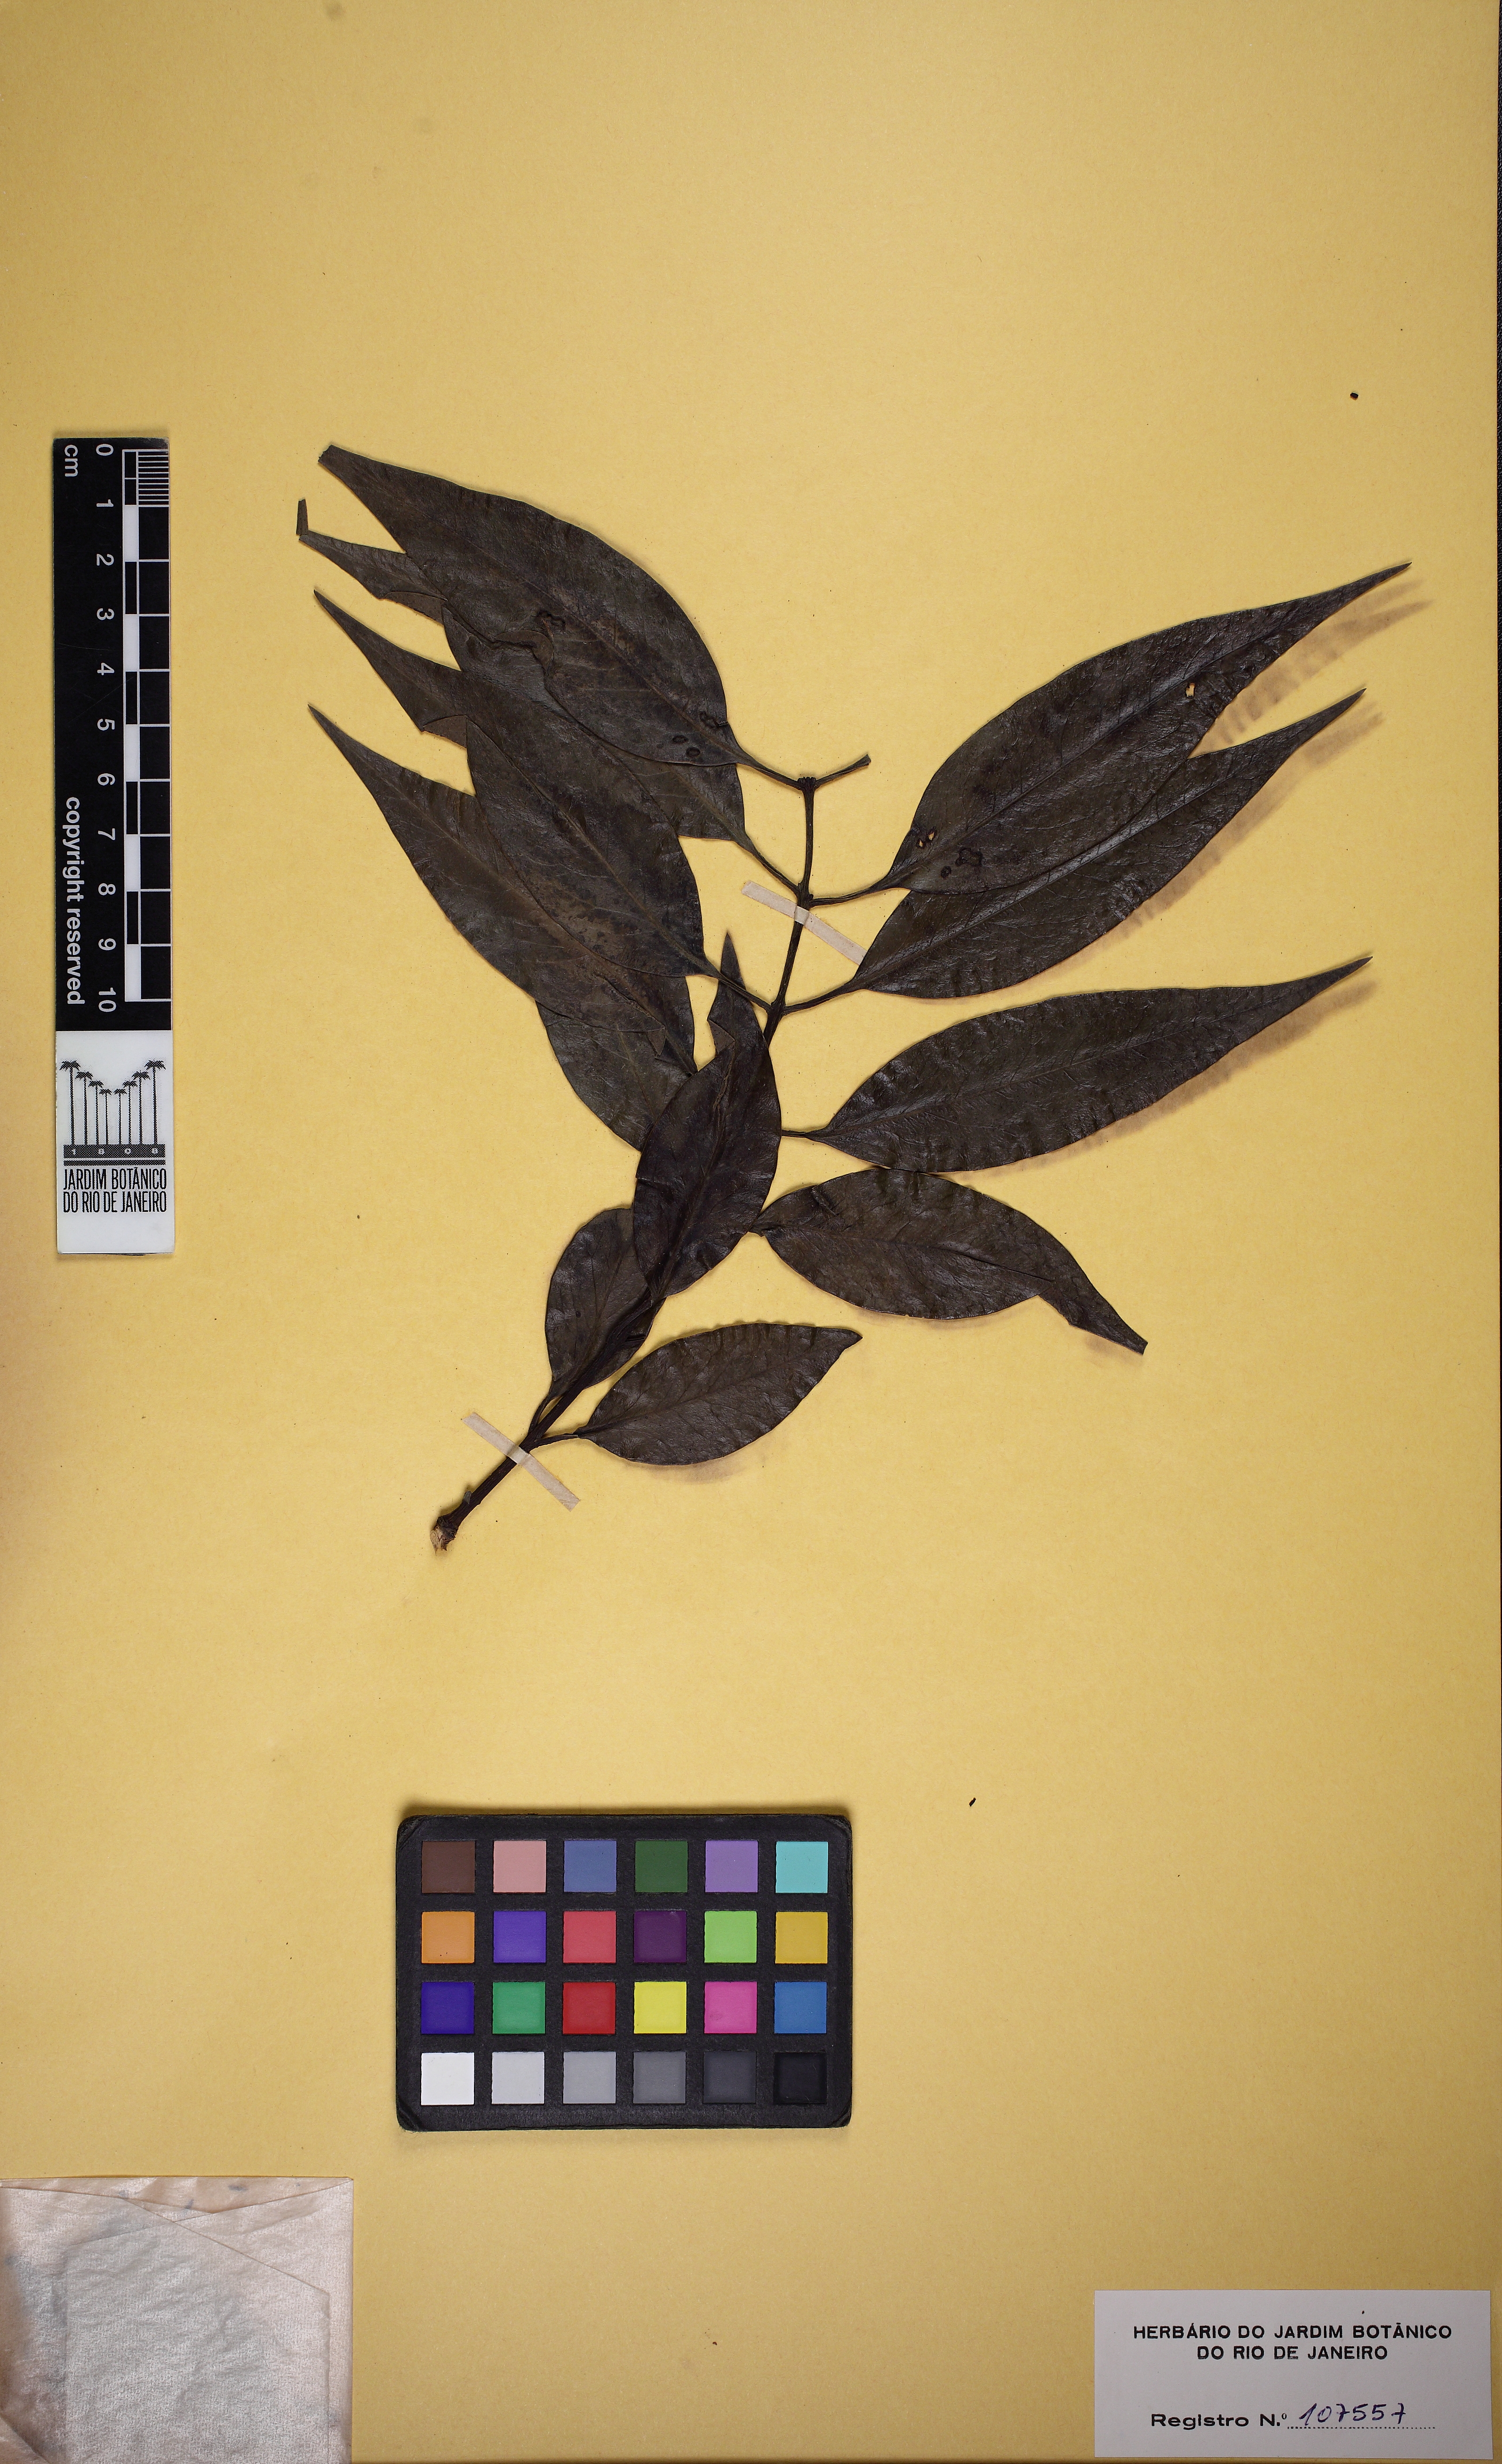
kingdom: Plantae
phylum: Tracheophyta
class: Magnoliopsida
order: Santalales
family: Loranthaceae
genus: Tripodanthus
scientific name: Tripodanthus acutifolius
